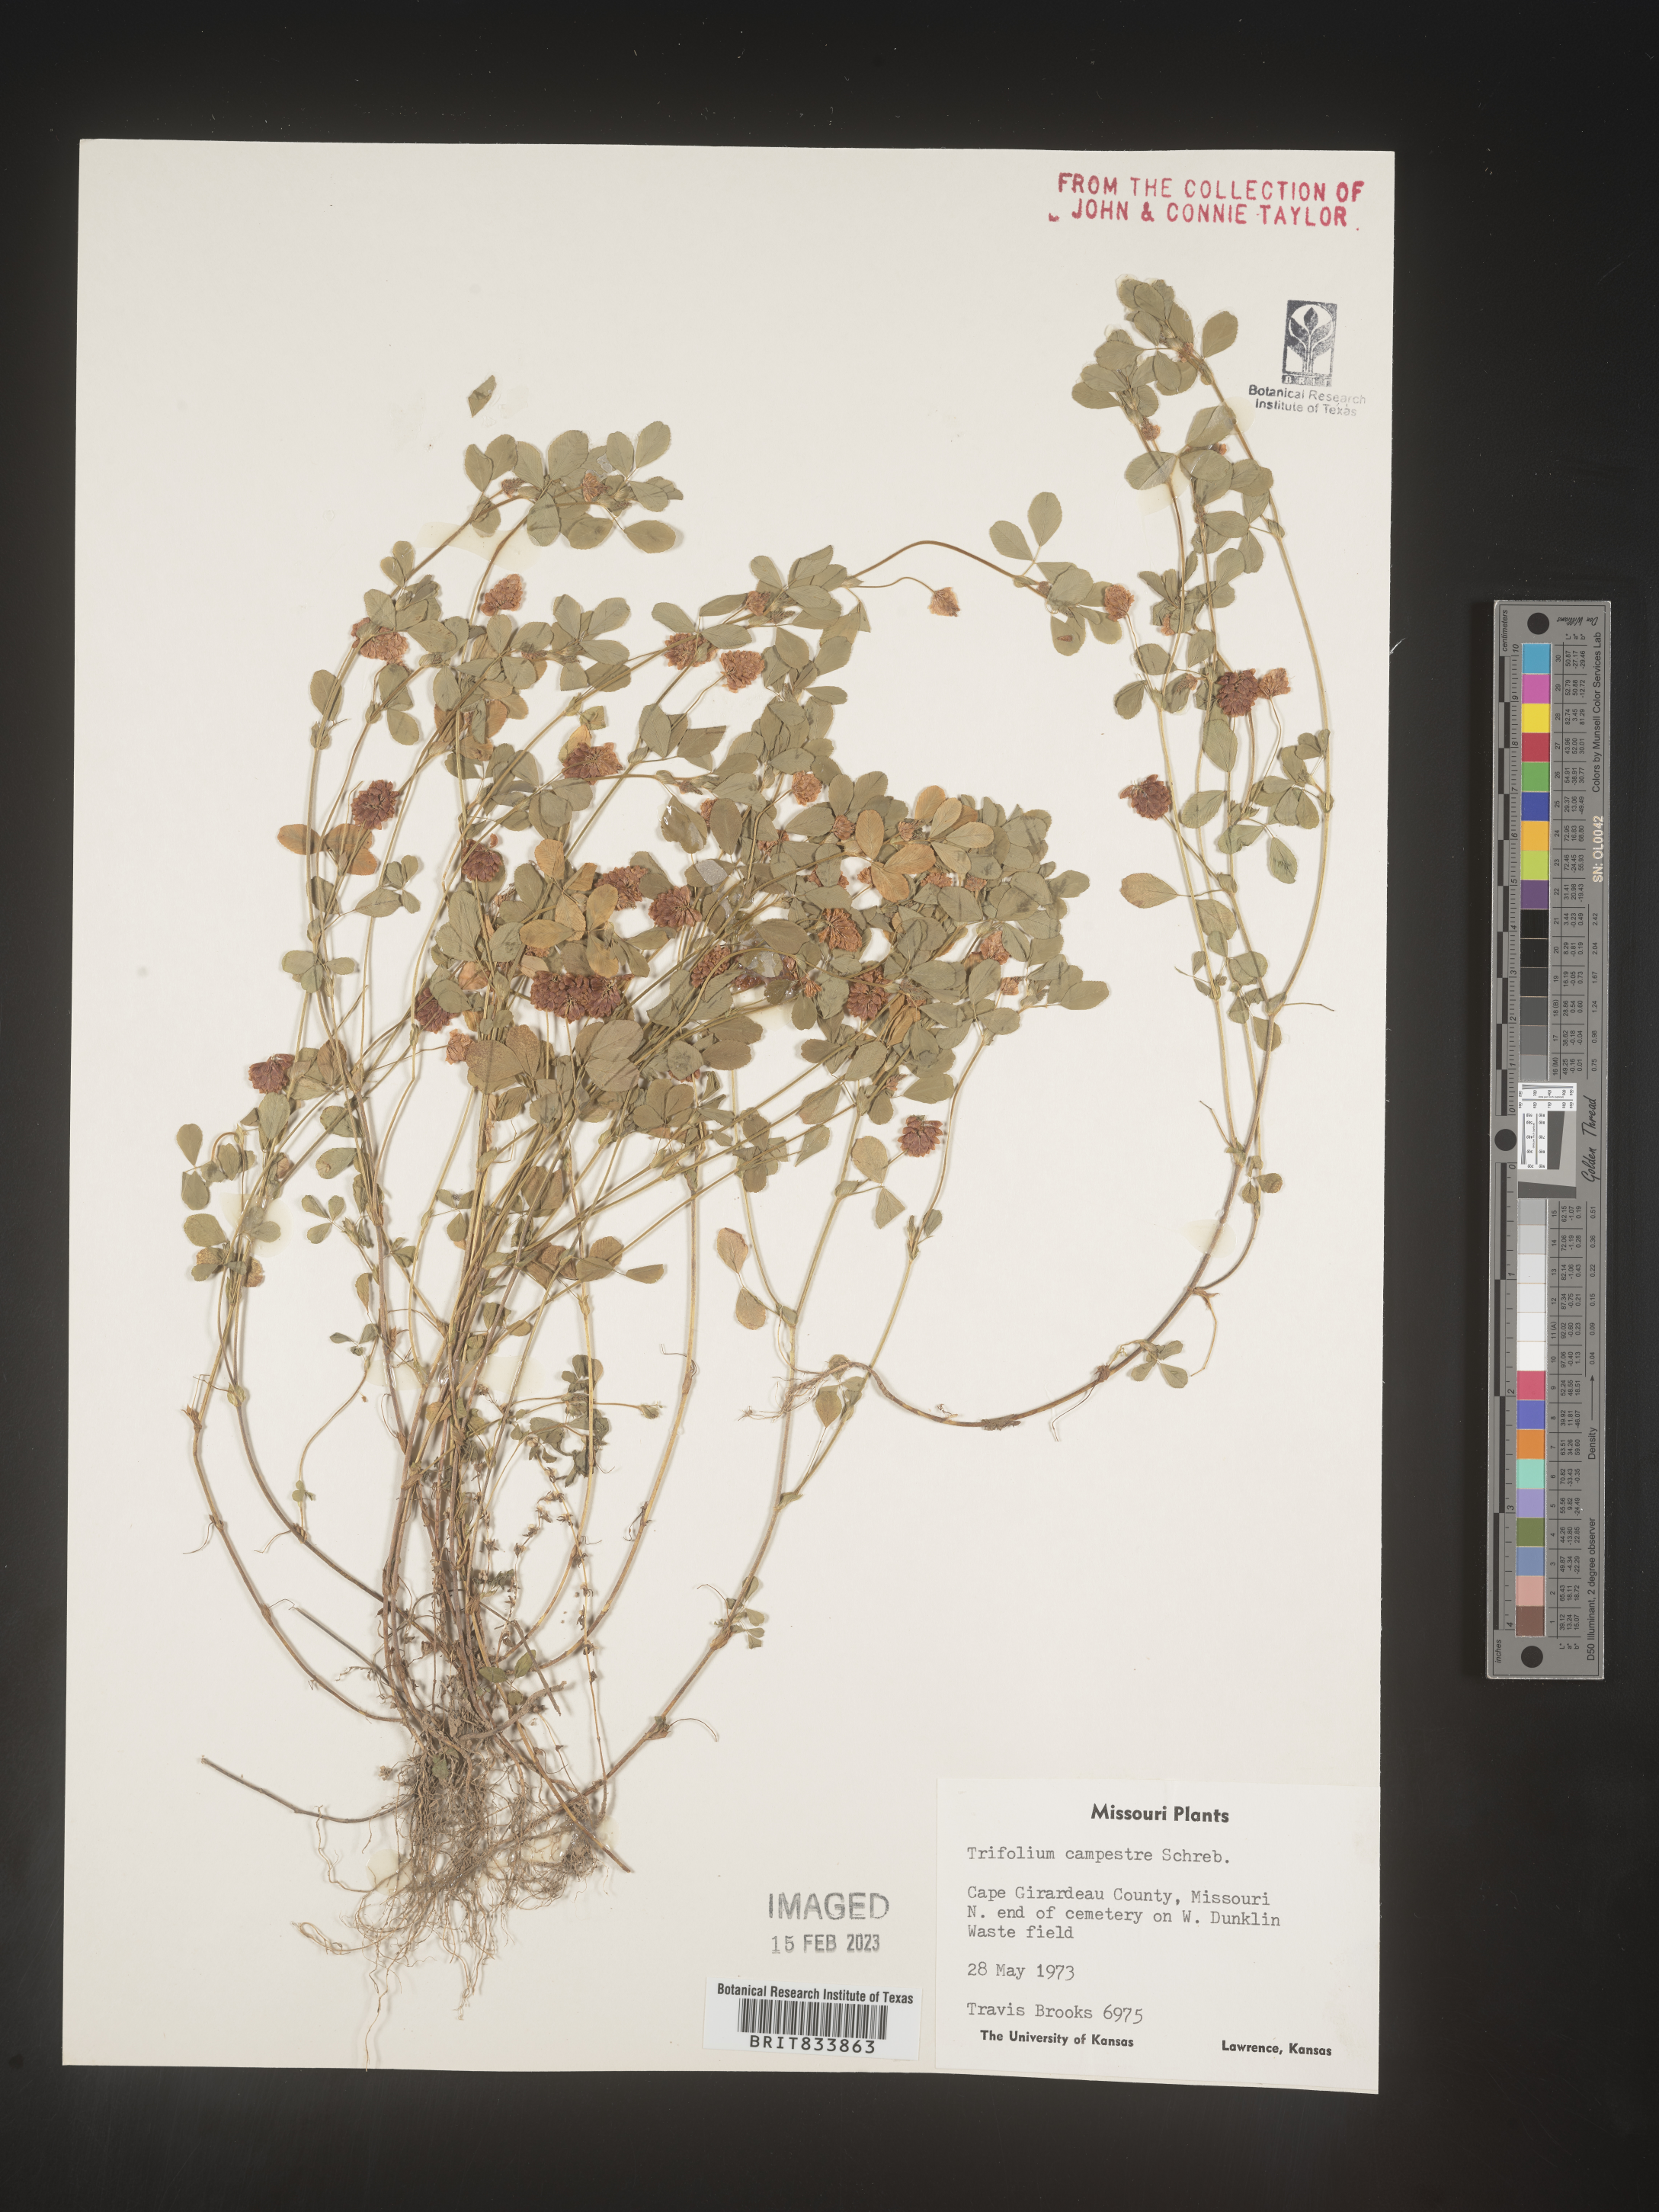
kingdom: Plantae
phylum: Tracheophyta
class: Magnoliopsida
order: Fabales
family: Fabaceae
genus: Trifolium
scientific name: Trifolium campestre
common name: Field clover
